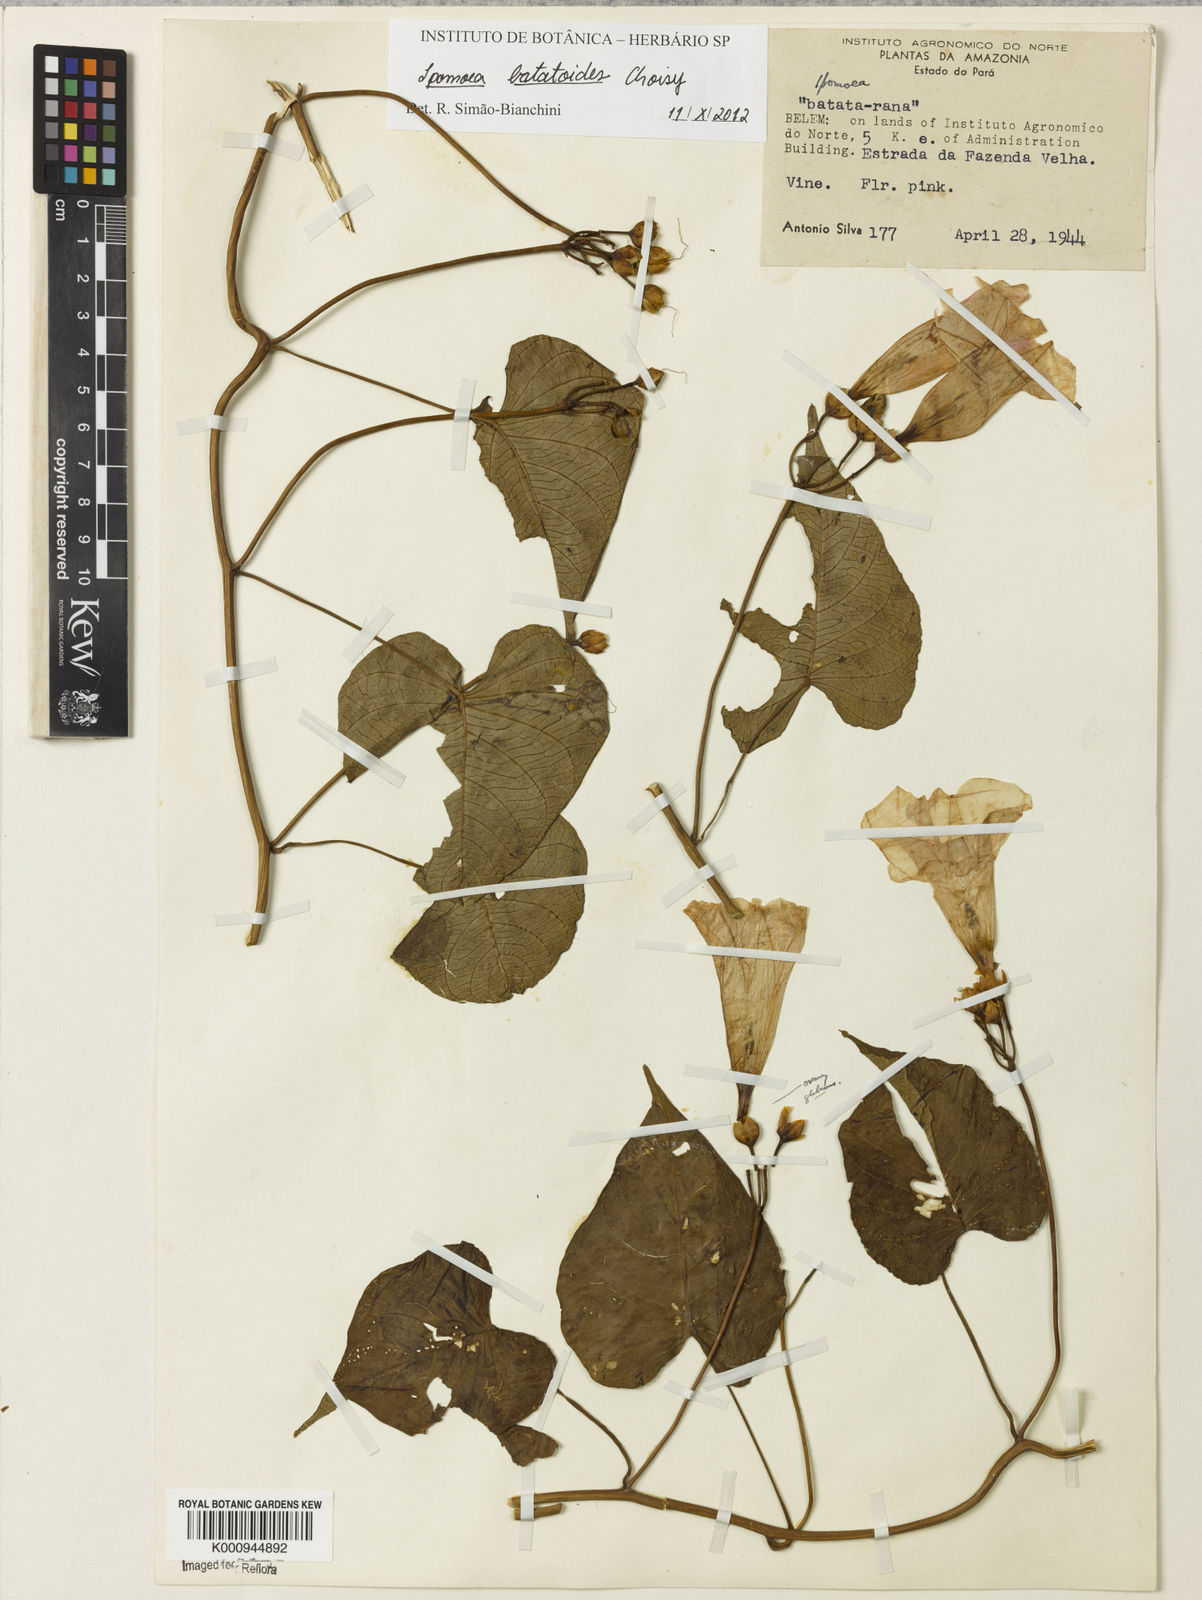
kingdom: Plantae
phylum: Tracheophyta
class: Magnoliopsida
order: Solanales
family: Convolvulaceae
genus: Ipomoea
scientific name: Ipomoea batatoides
